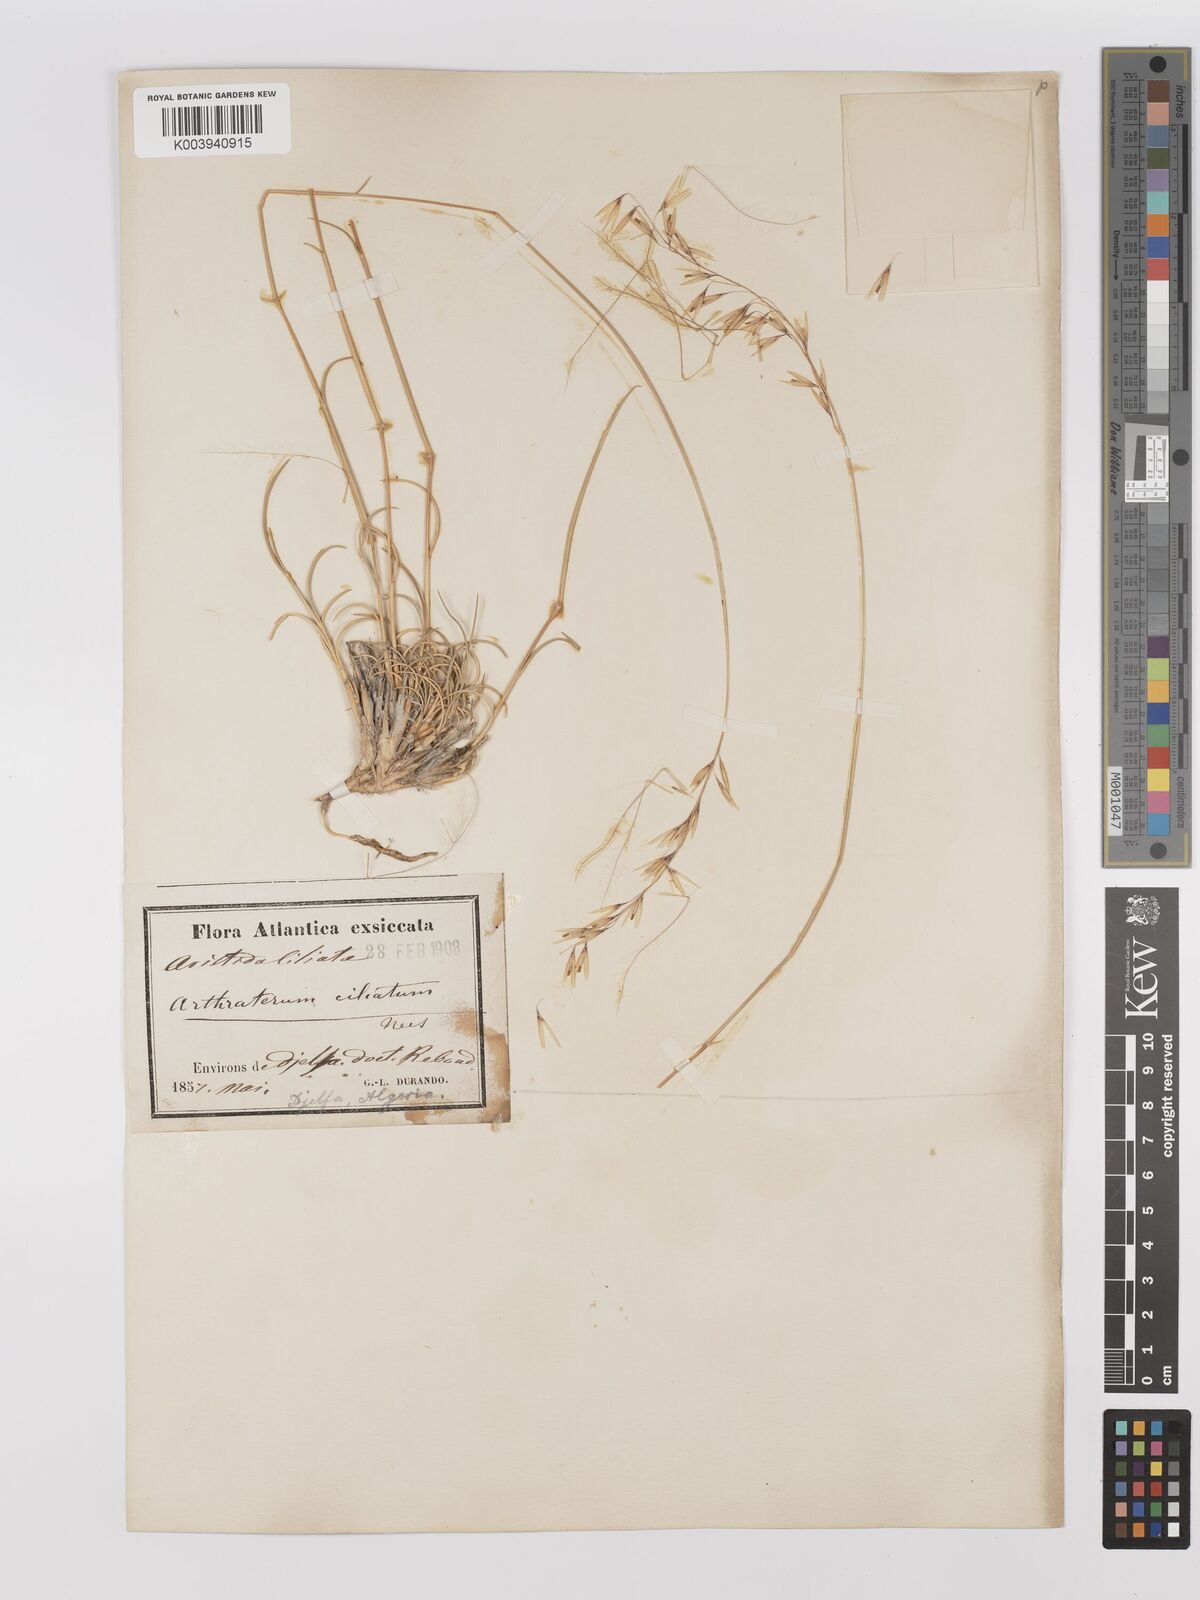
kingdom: Plantae
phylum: Tracheophyta
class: Liliopsida
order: Poales
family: Poaceae
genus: Stipagrostis
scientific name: Stipagrostis ciliata
